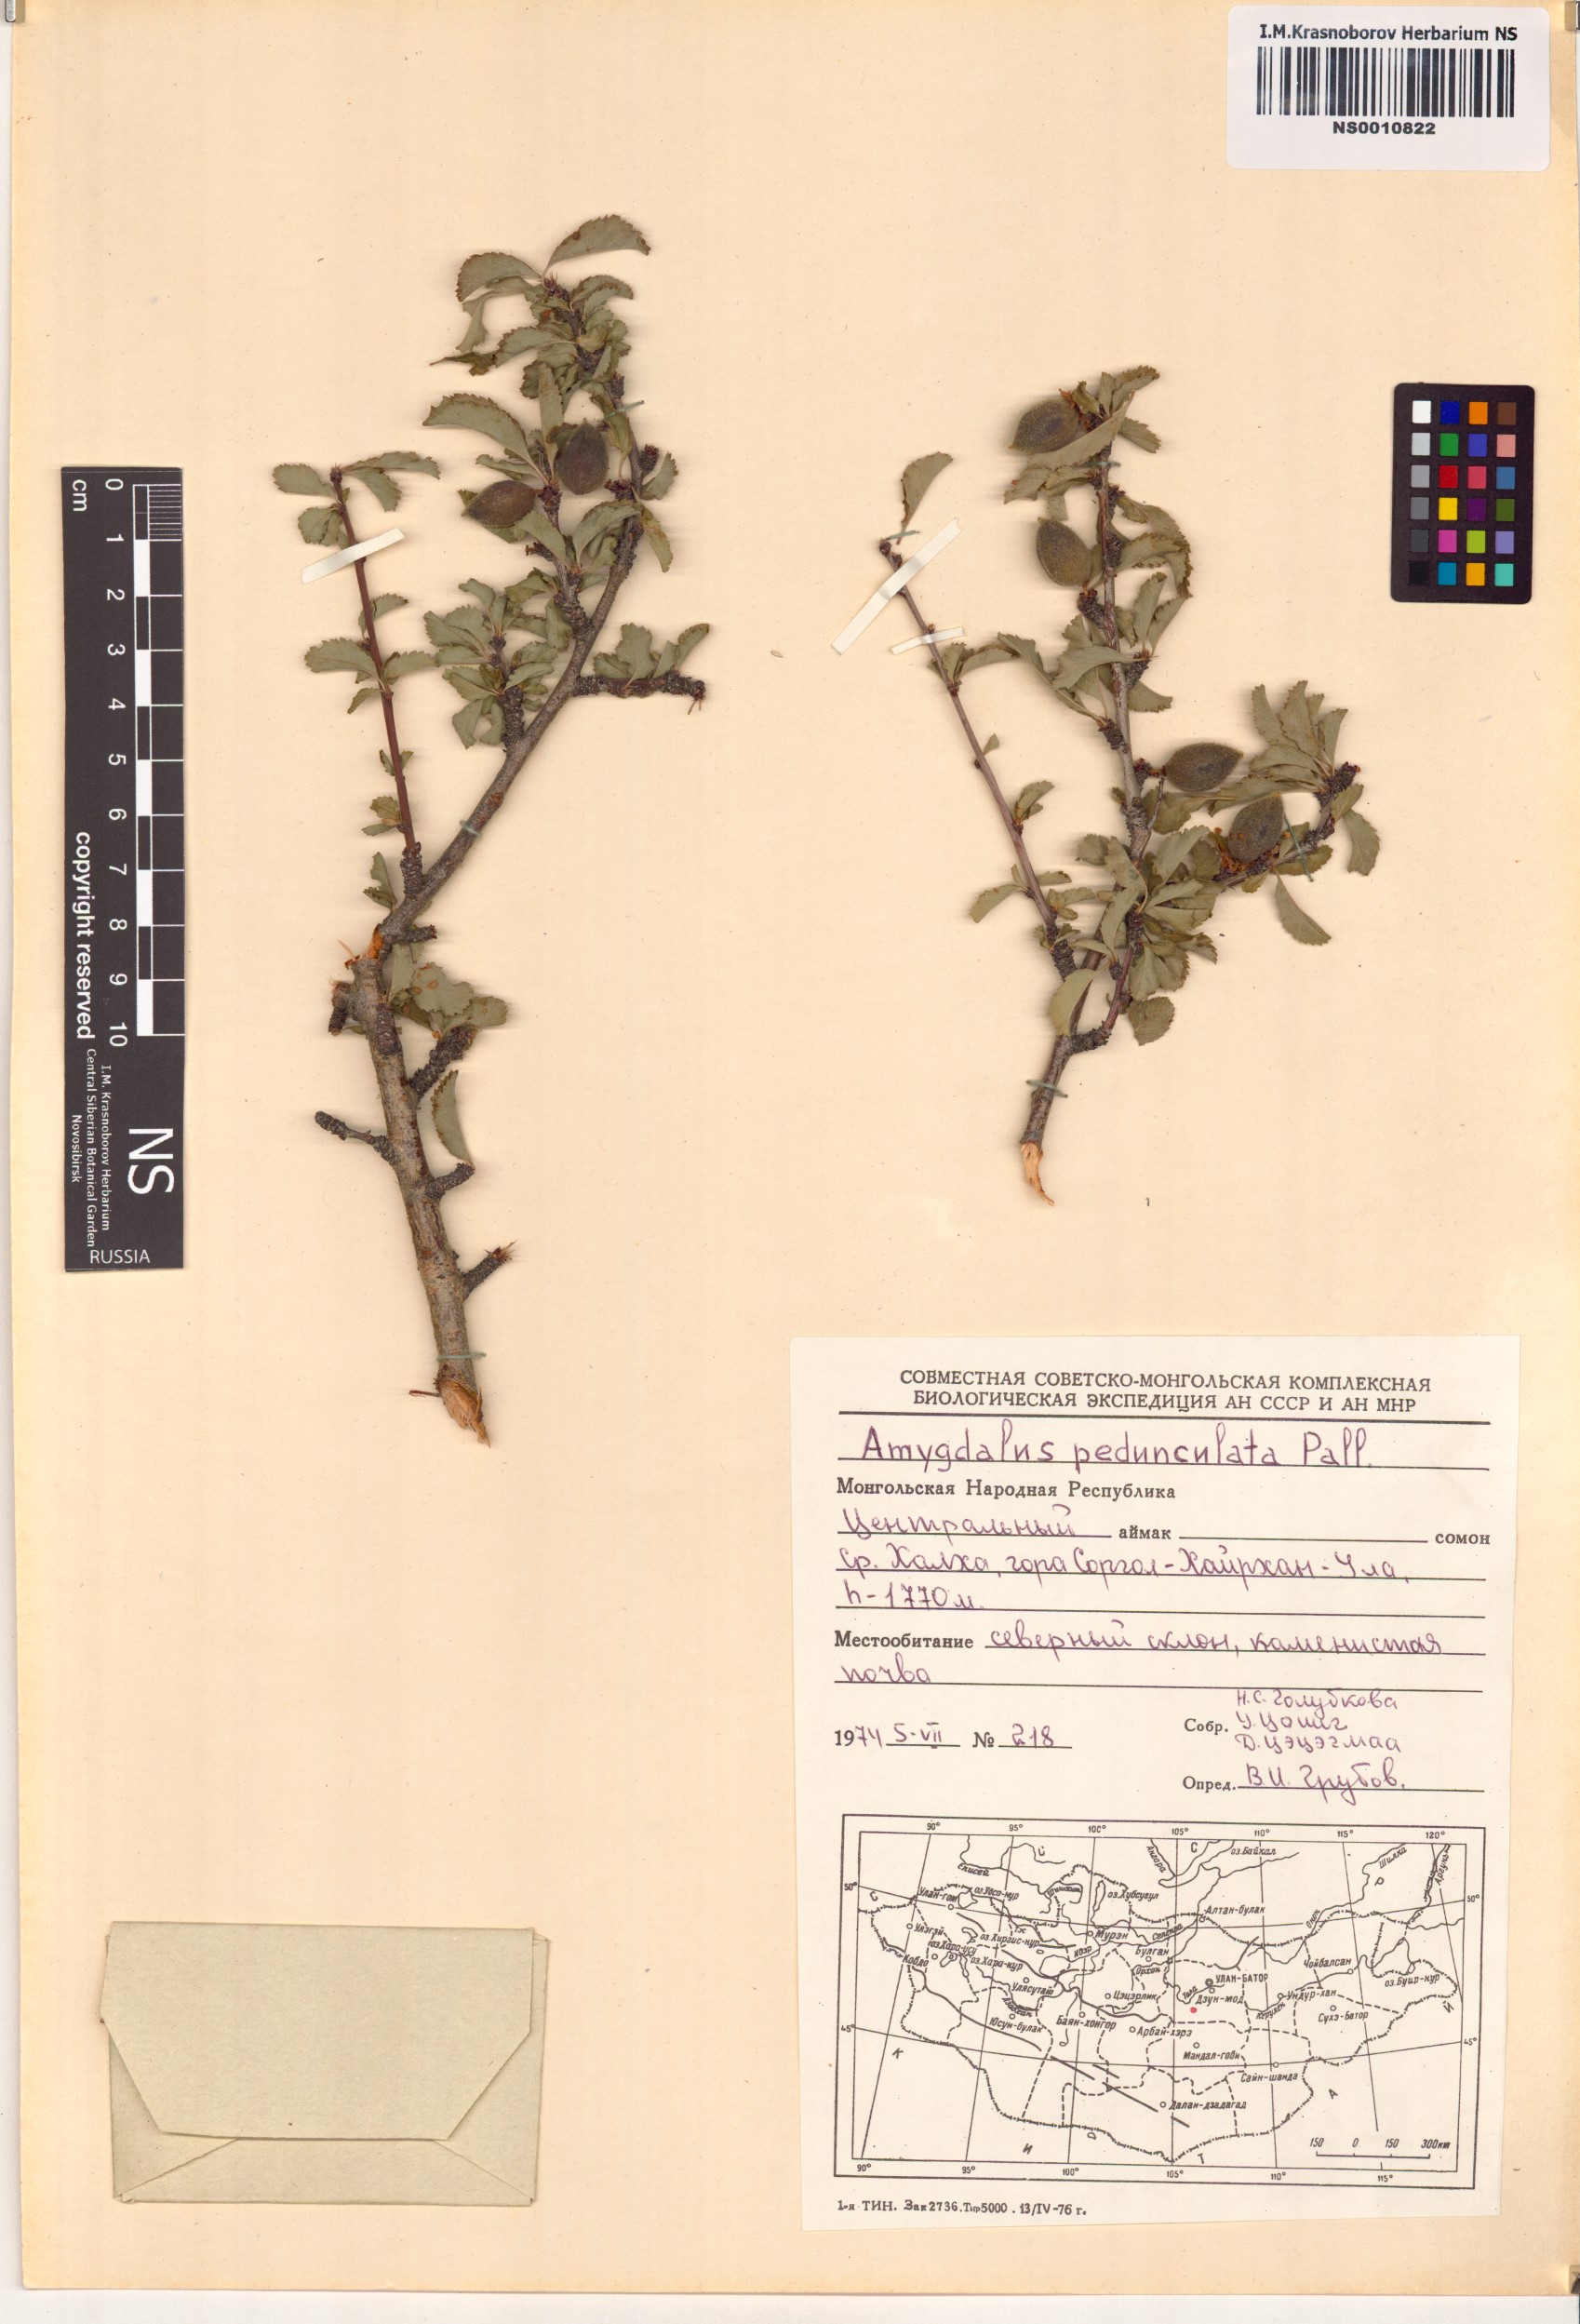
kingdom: Plantae
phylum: Tracheophyta
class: Magnoliopsida
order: Rosales
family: Rosaceae
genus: Prunus
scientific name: Prunus pedunculata
